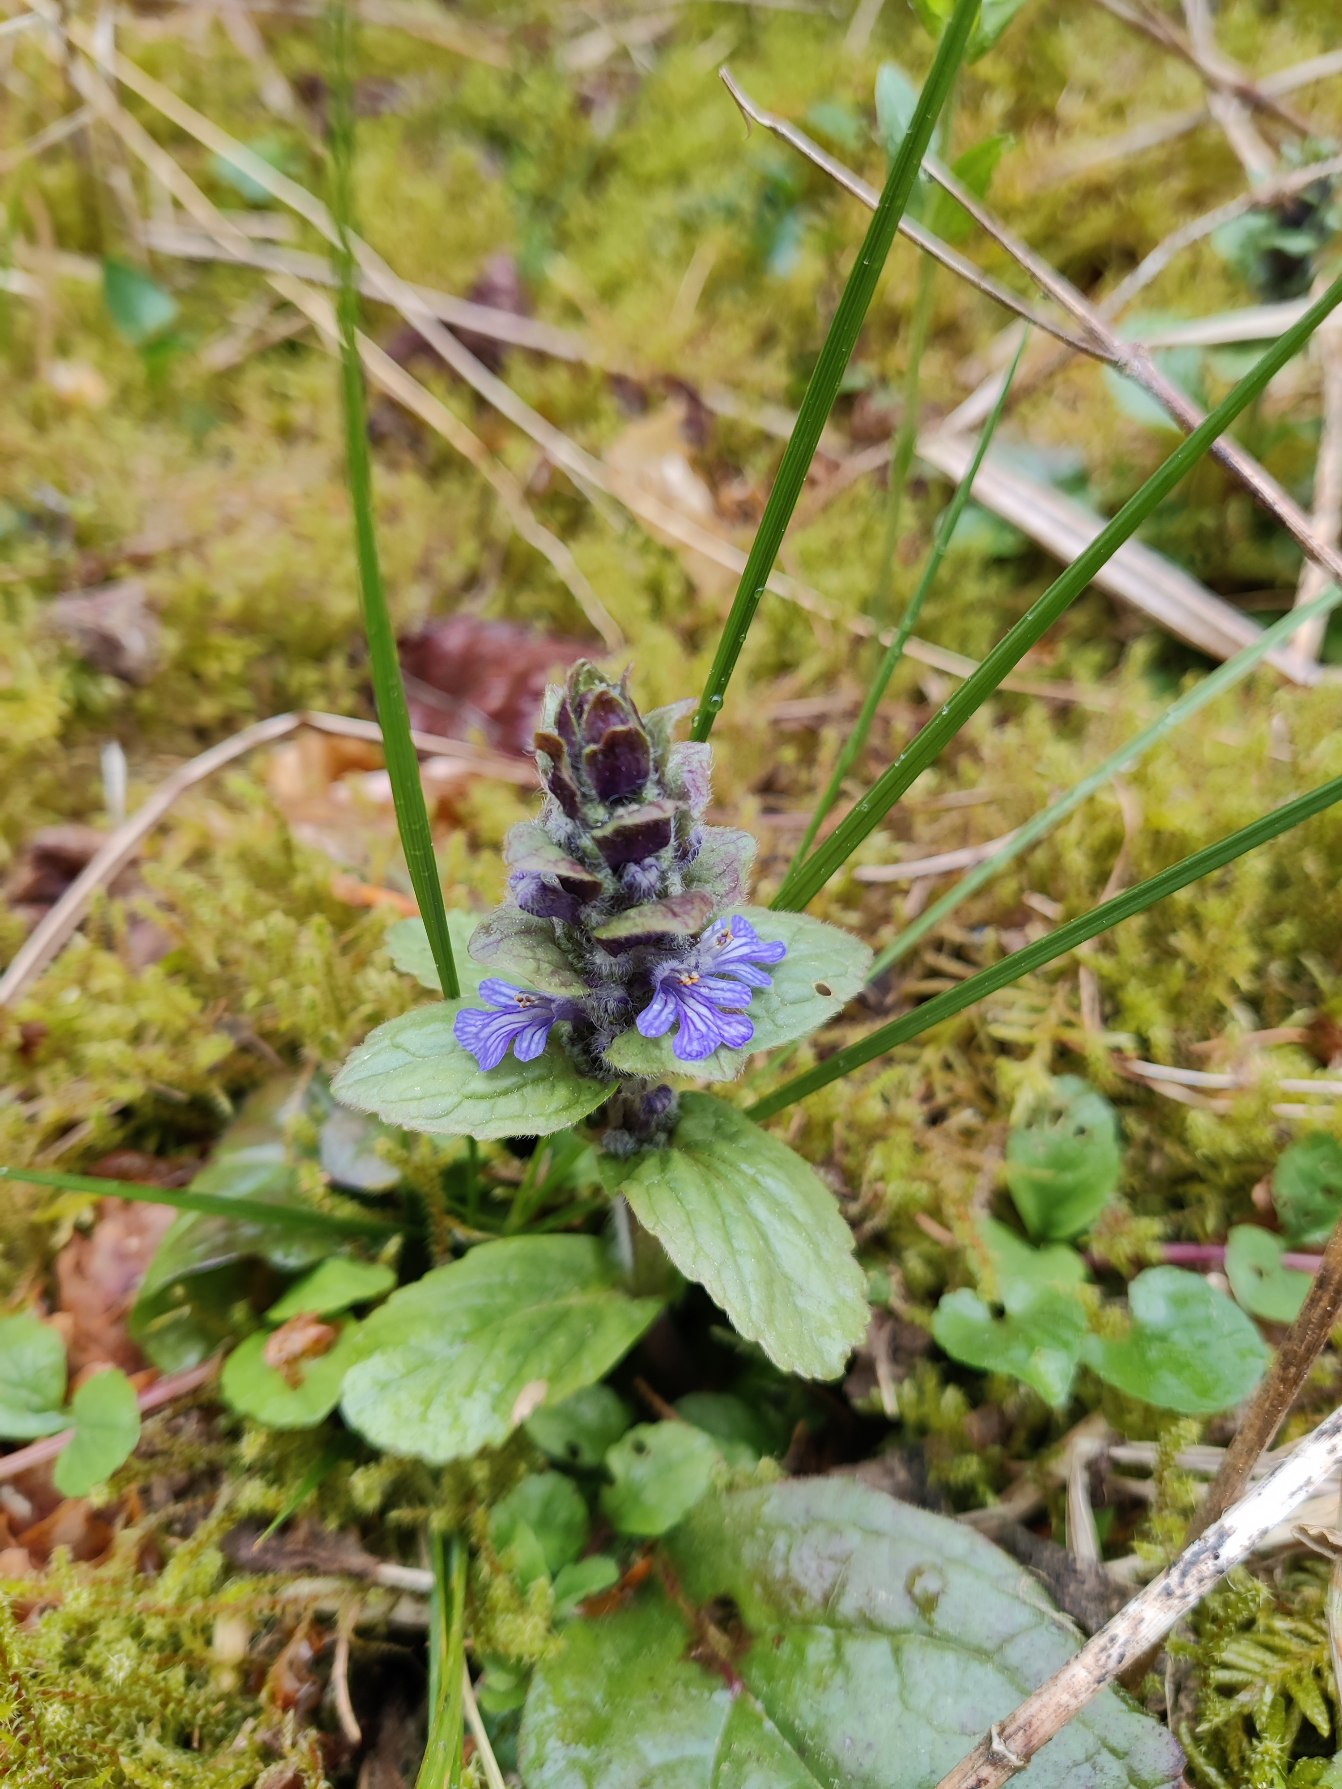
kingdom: Plantae
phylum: Tracheophyta
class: Magnoliopsida
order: Lamiales
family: Lamiaceae
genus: Ajuga
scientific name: Ajuga reptans
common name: Krybende læbeløs
